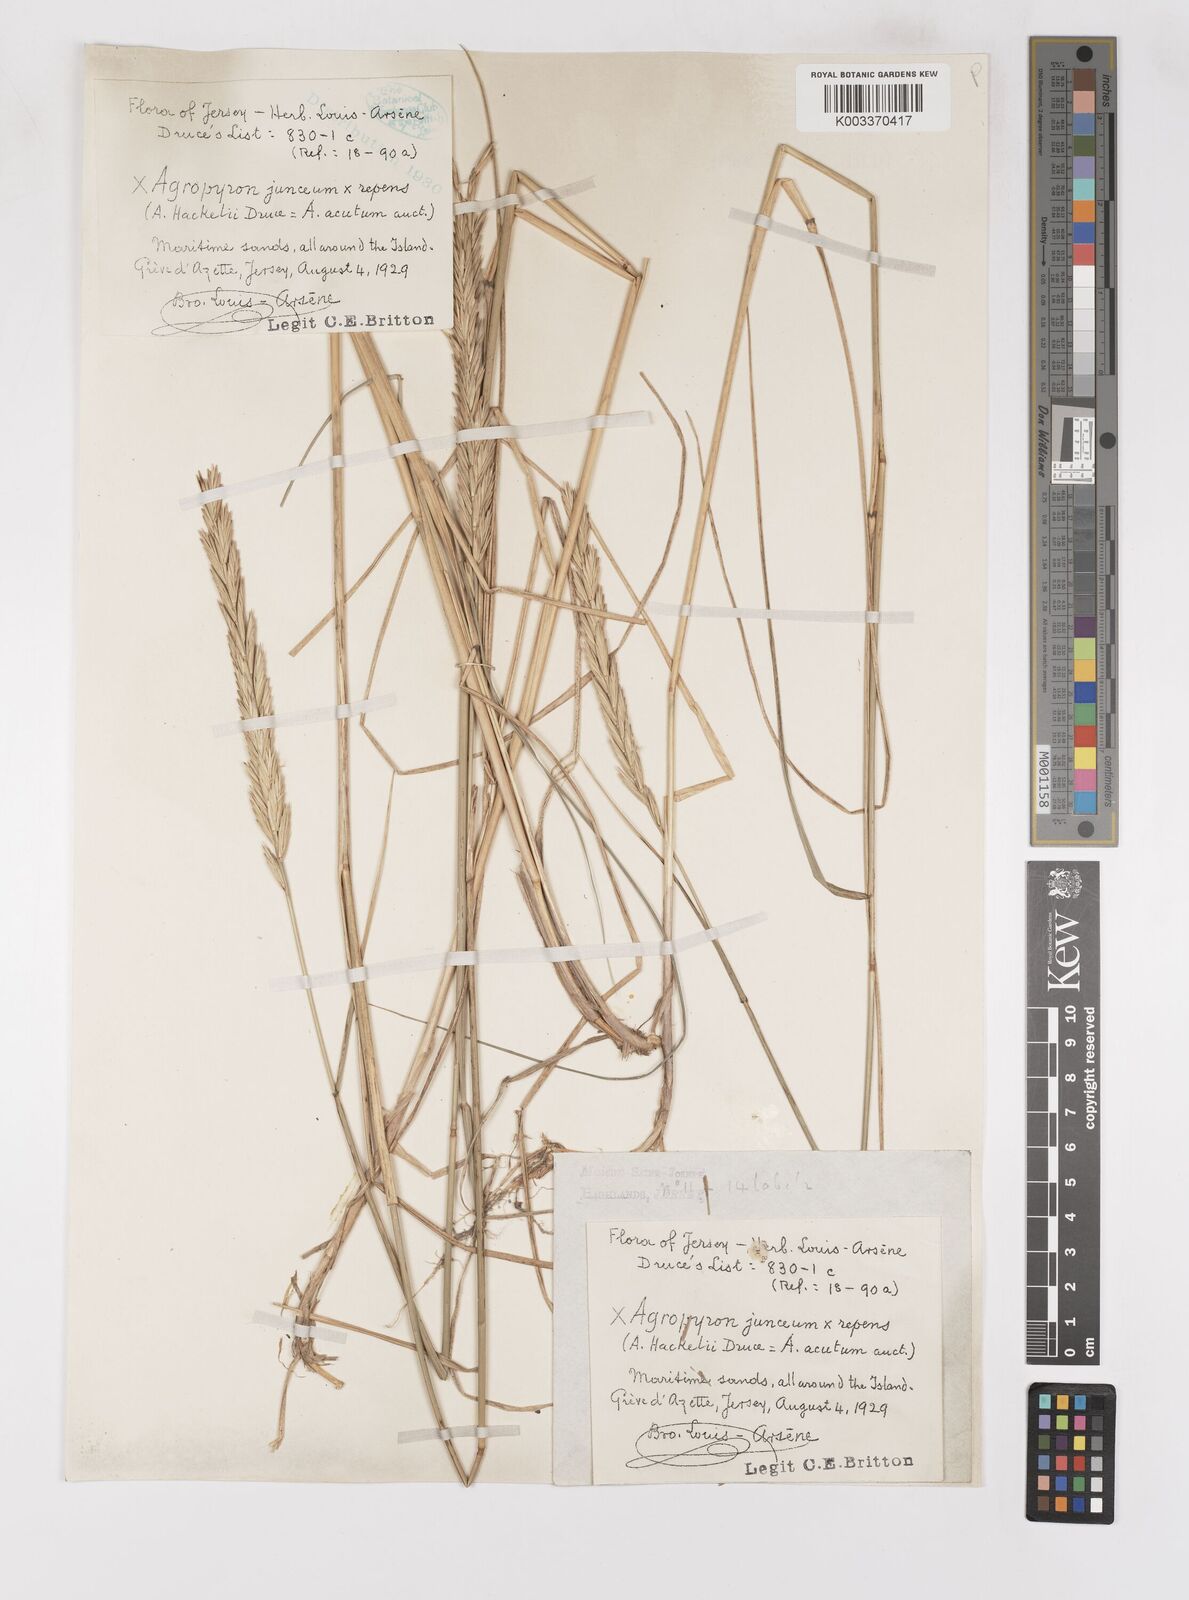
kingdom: Plantae
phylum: Tracheophyta
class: Liliopsida
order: Poales
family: Poaceae
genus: Elymus
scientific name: Elymus oliveri
